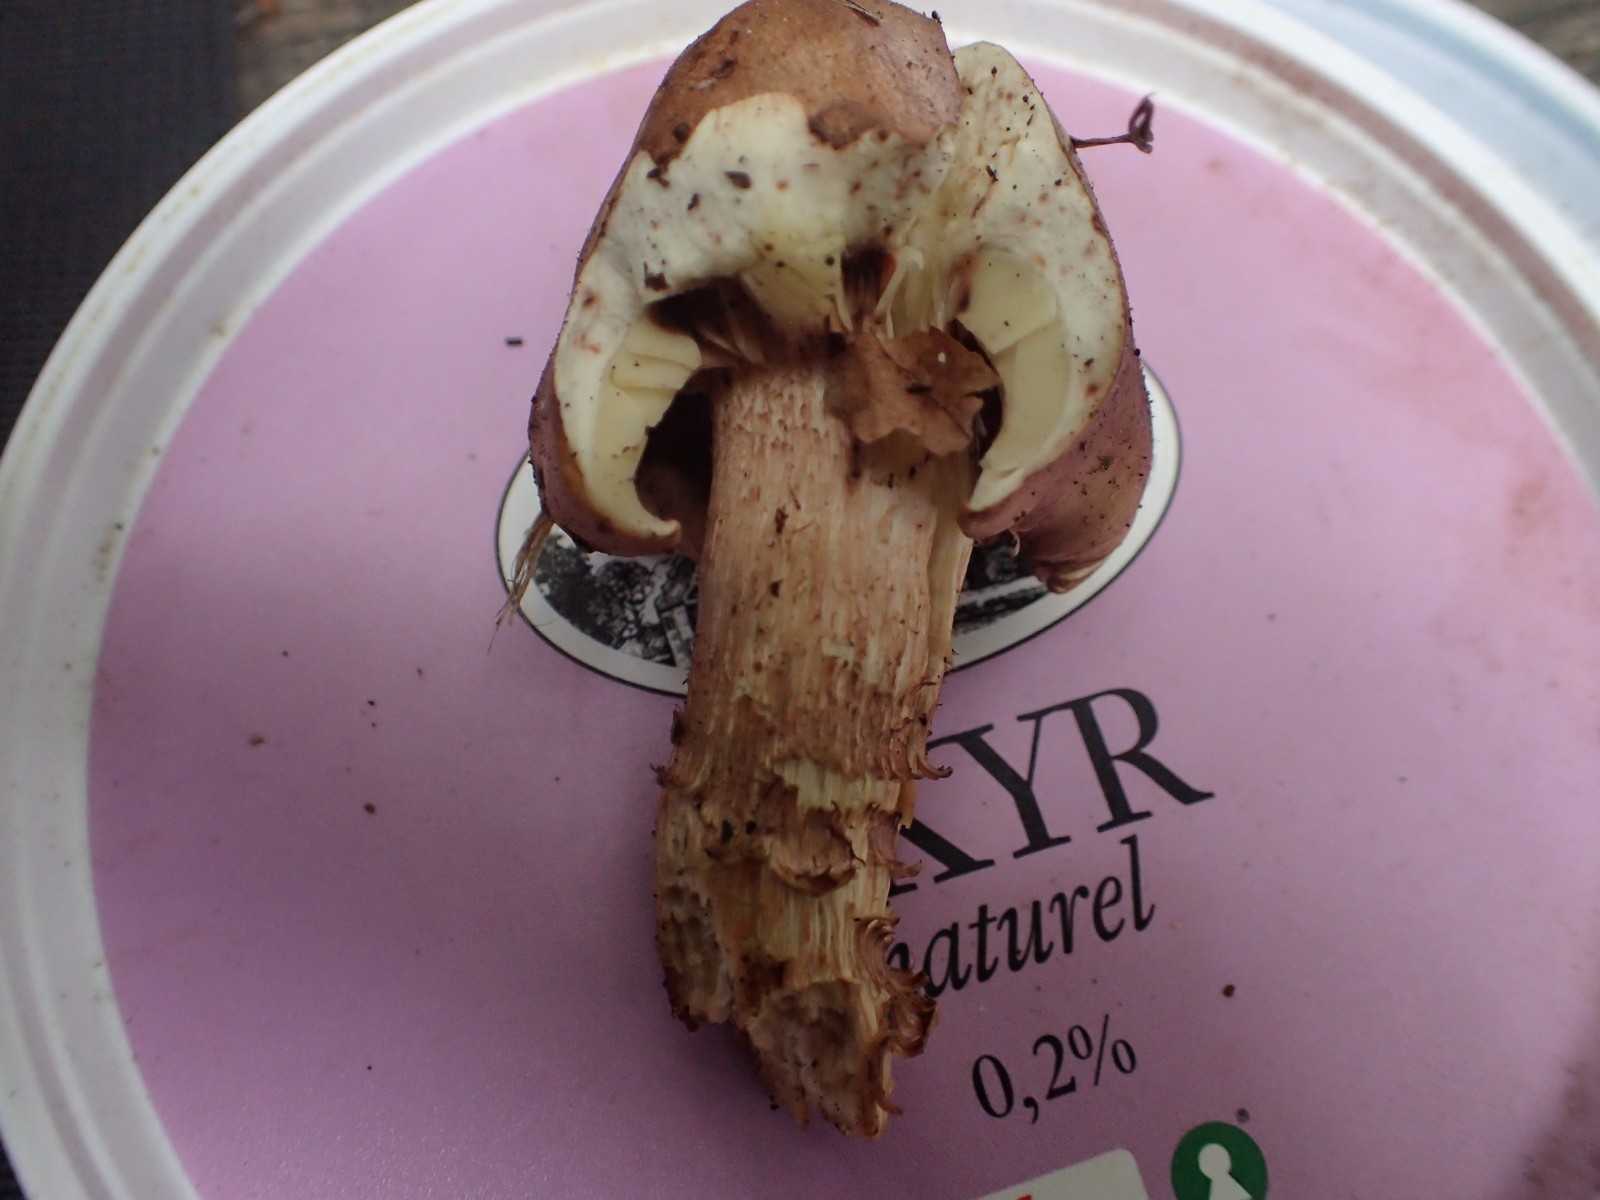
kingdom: Fungi
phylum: Basidiomycota
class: Agaricomycetes
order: Agaricales
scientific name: Agaricales
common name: champignonordenen
